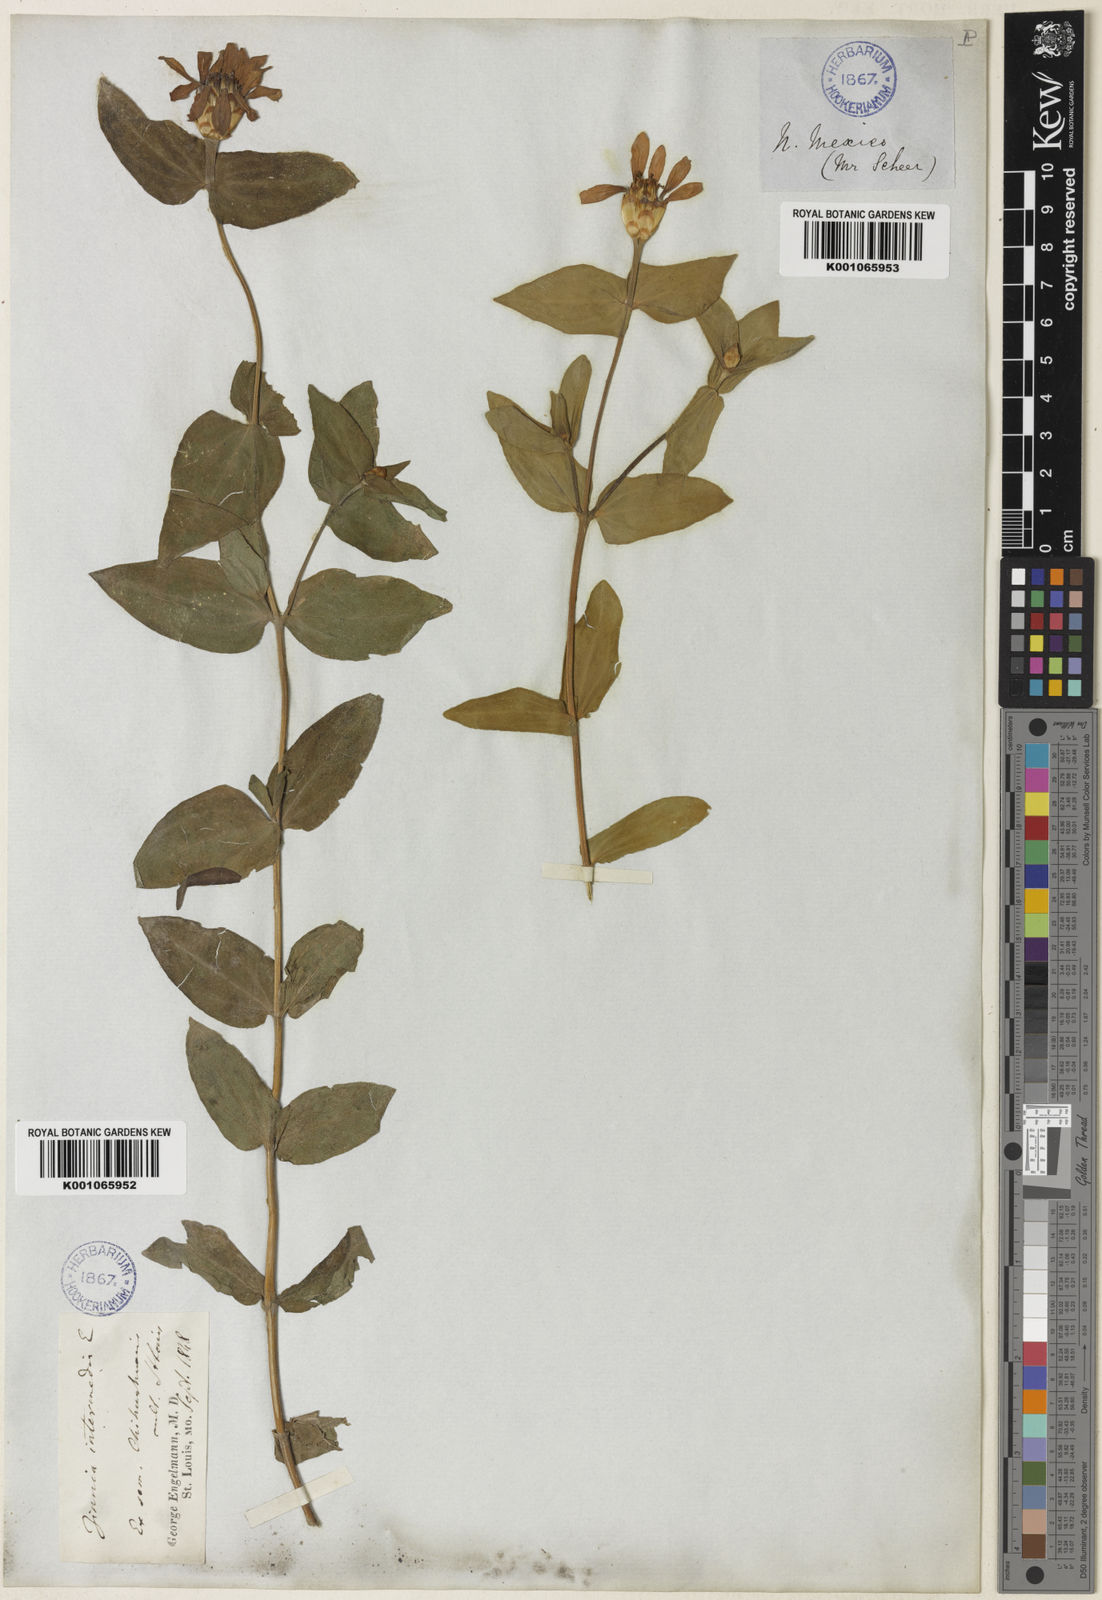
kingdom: Plantae
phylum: Tracheophyta
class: Magnoliopsida
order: Asterales
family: Asteraceae
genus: Zinnia
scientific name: Zinnia peruviana
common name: Peruvian zinnia
